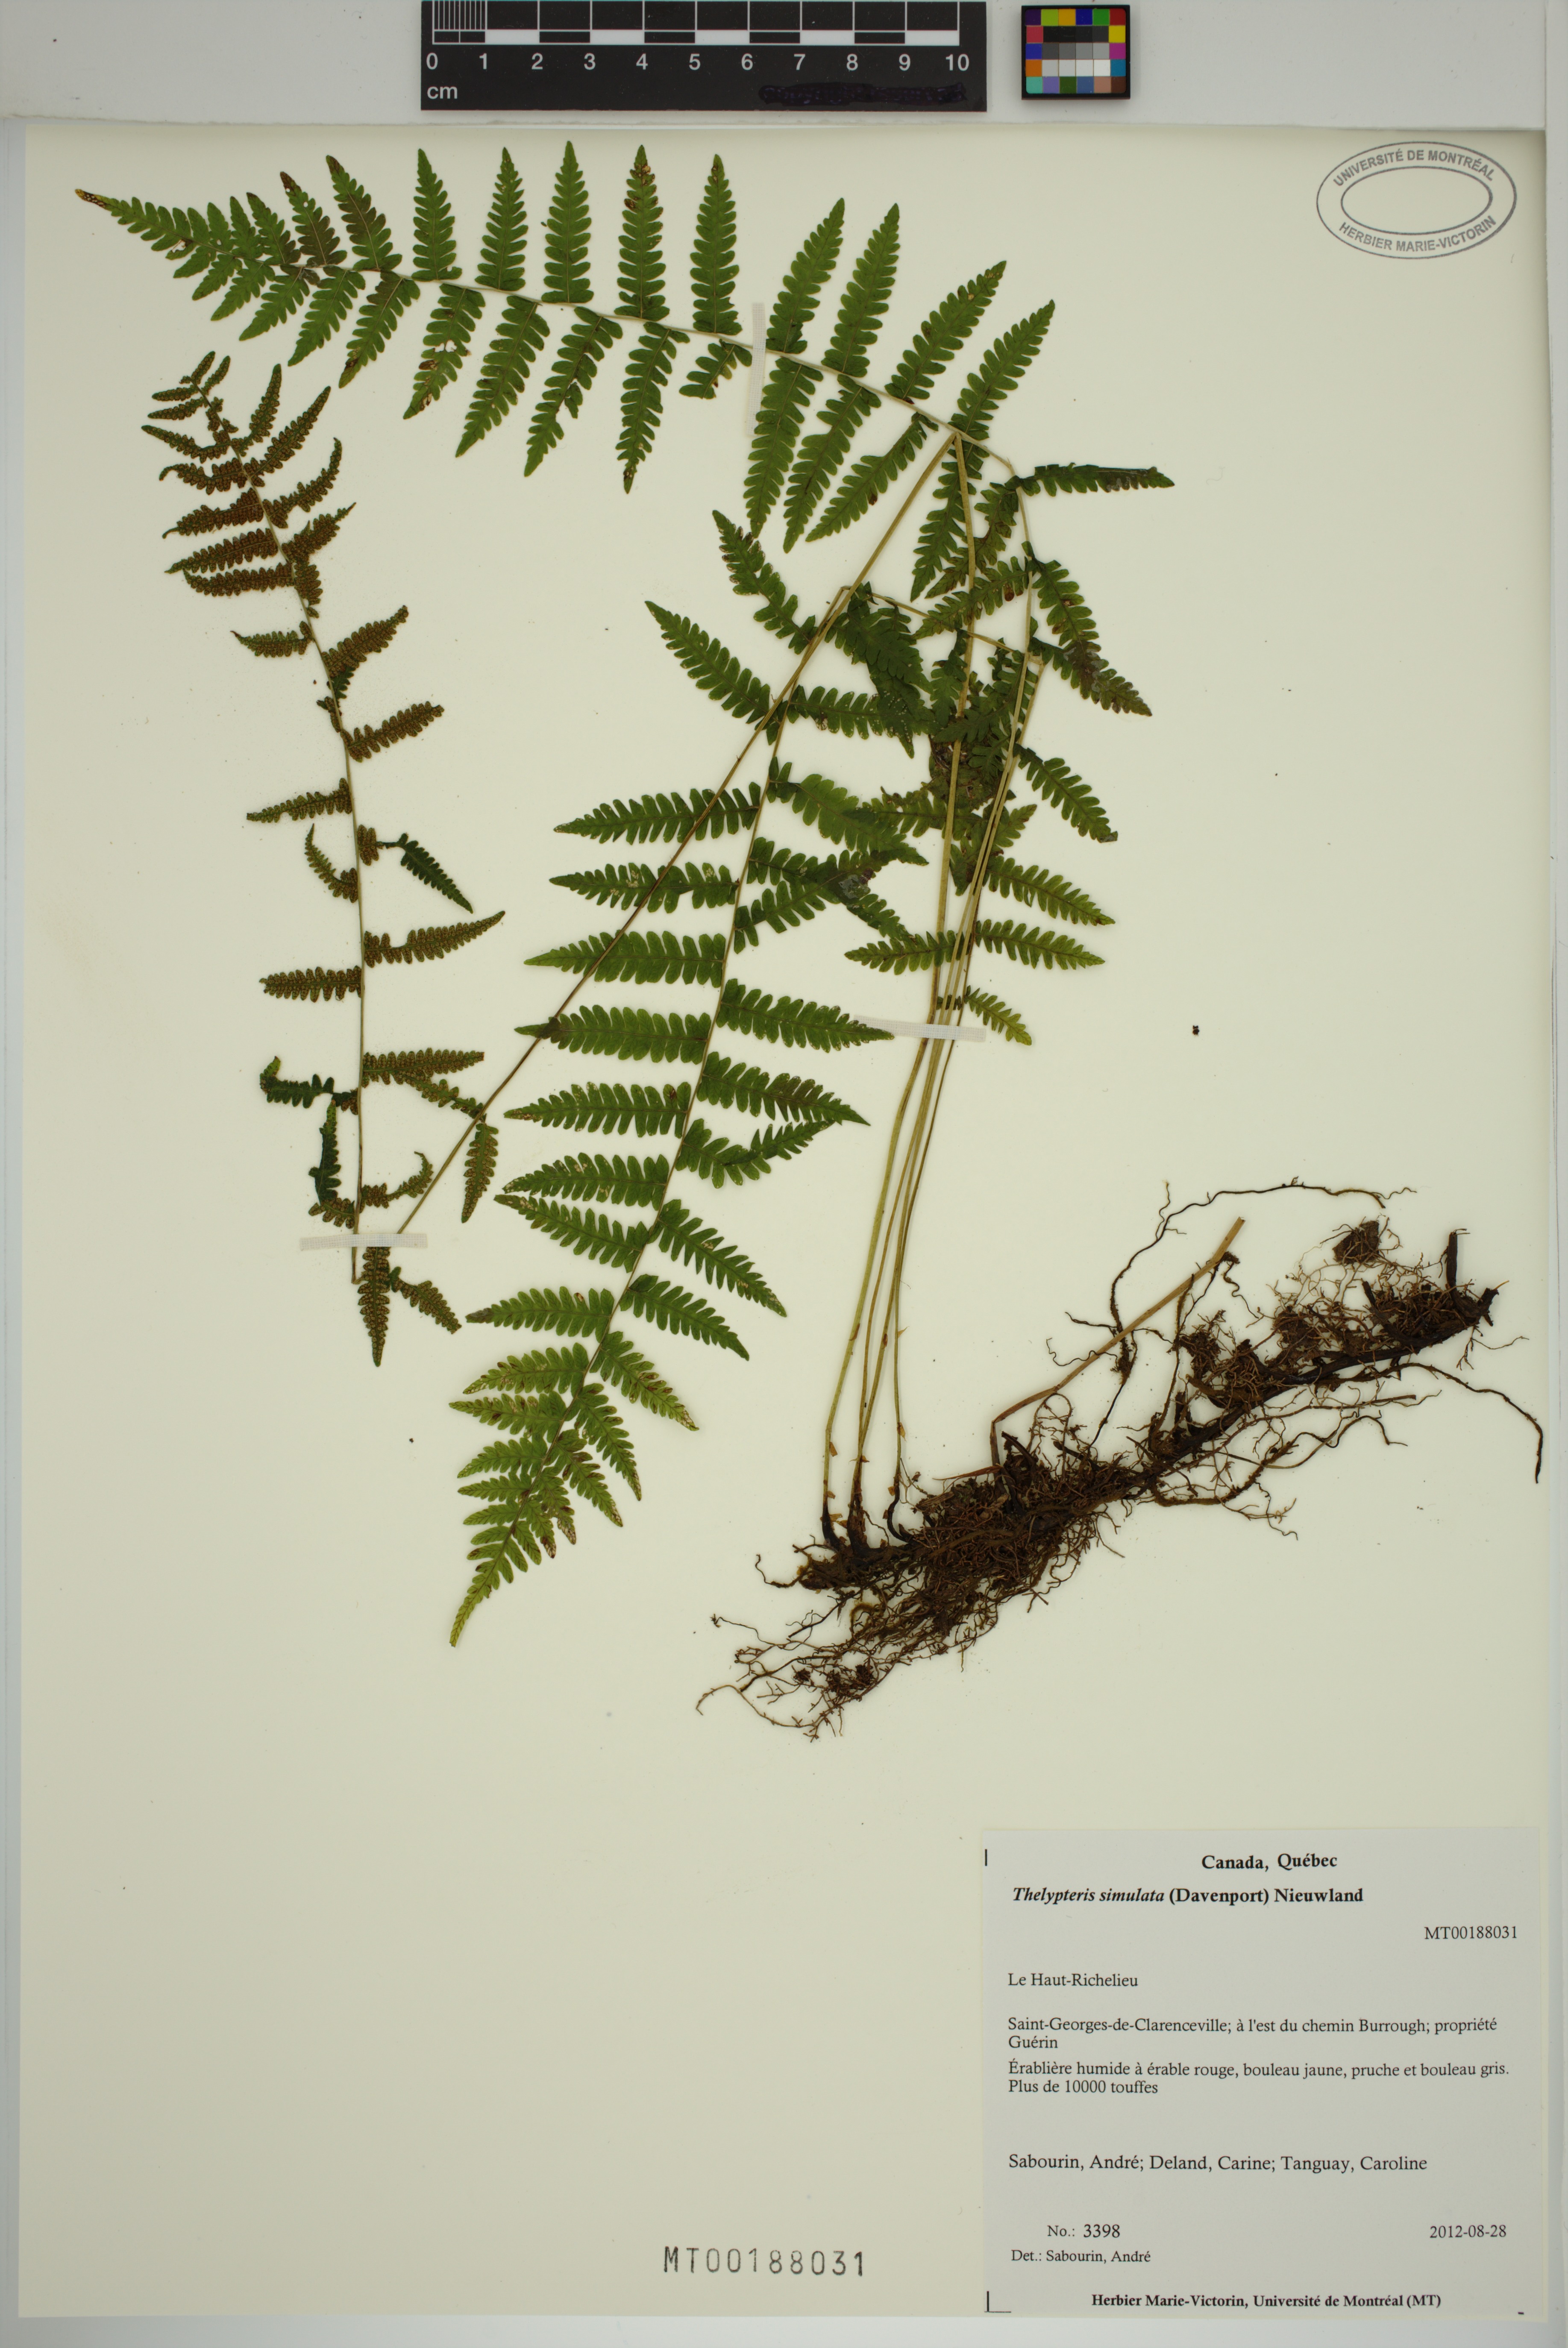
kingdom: Plantae
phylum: Tracheophyta
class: Polypodiopsida
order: Polypodiales
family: Thelypteridaceae
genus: Coryphopteris
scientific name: Coryphopteris simulata
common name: Bog fern
